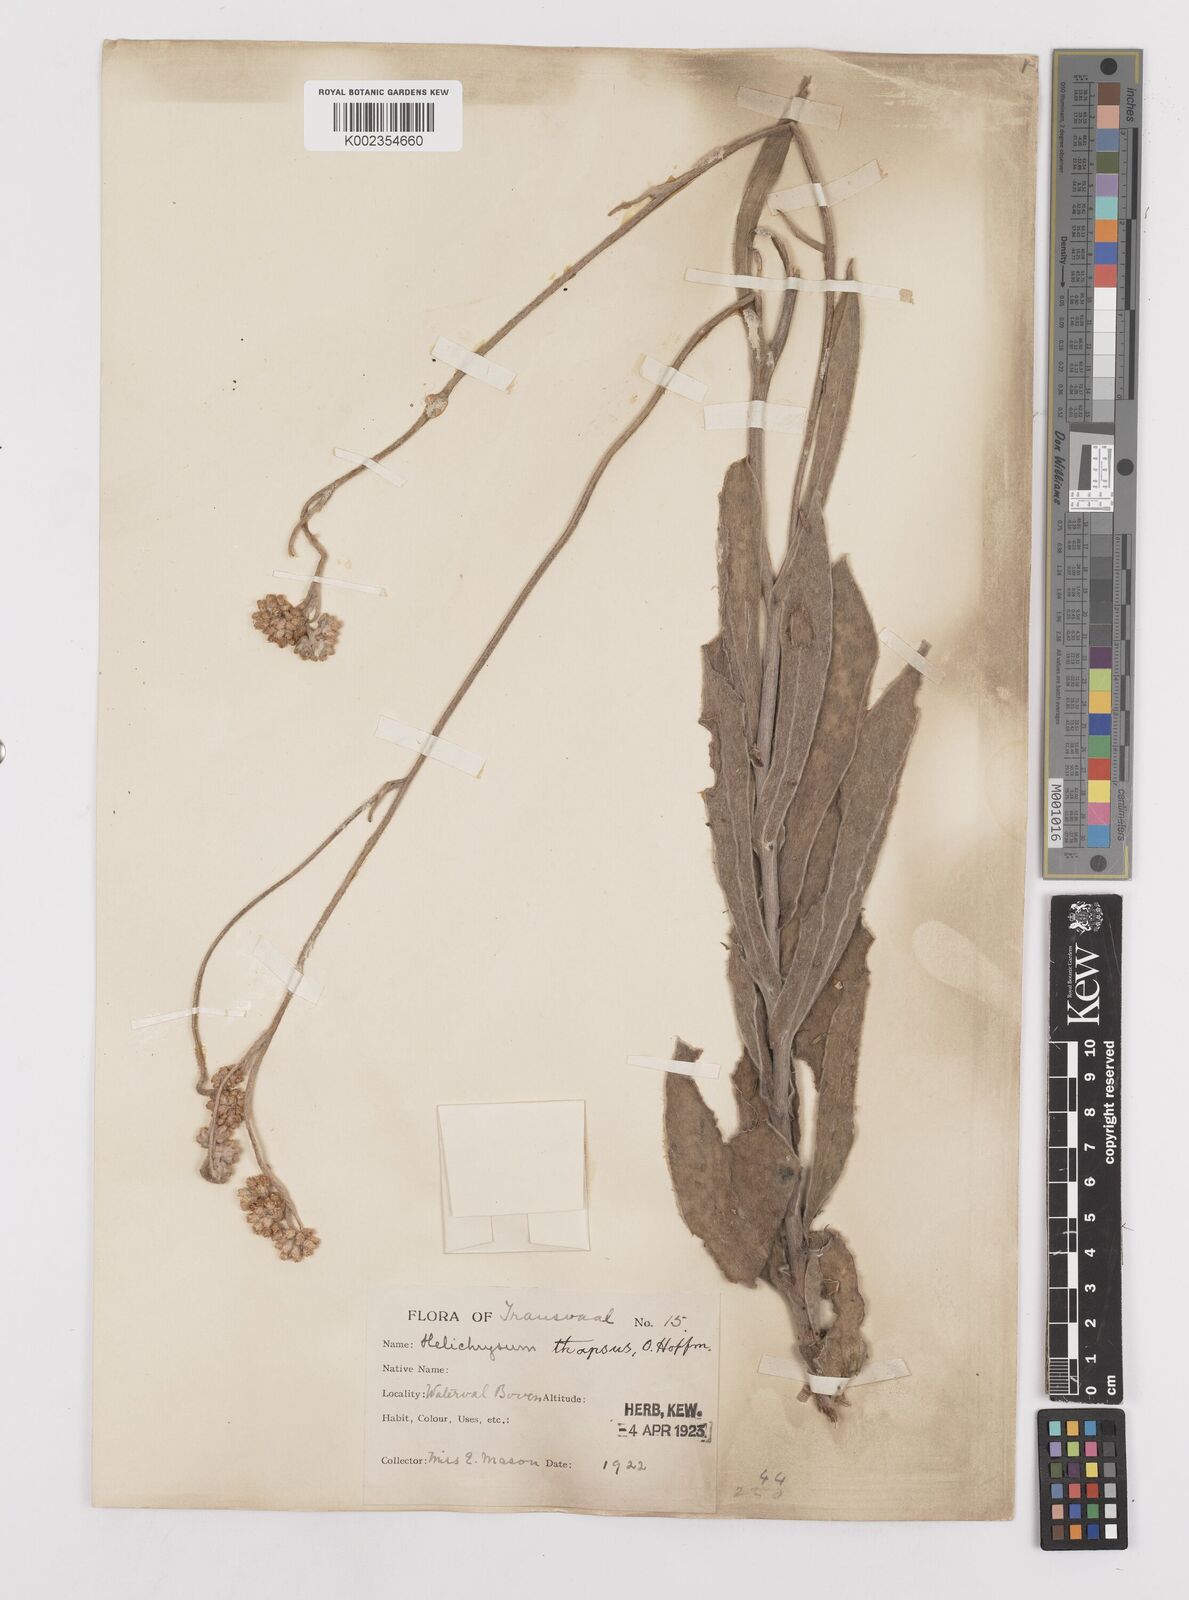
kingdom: Plantae
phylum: Tracheophyta
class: Magnoliopsida
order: Asterales
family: Asteraceae
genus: Helichrysum
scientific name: Helichrysum thapsus
